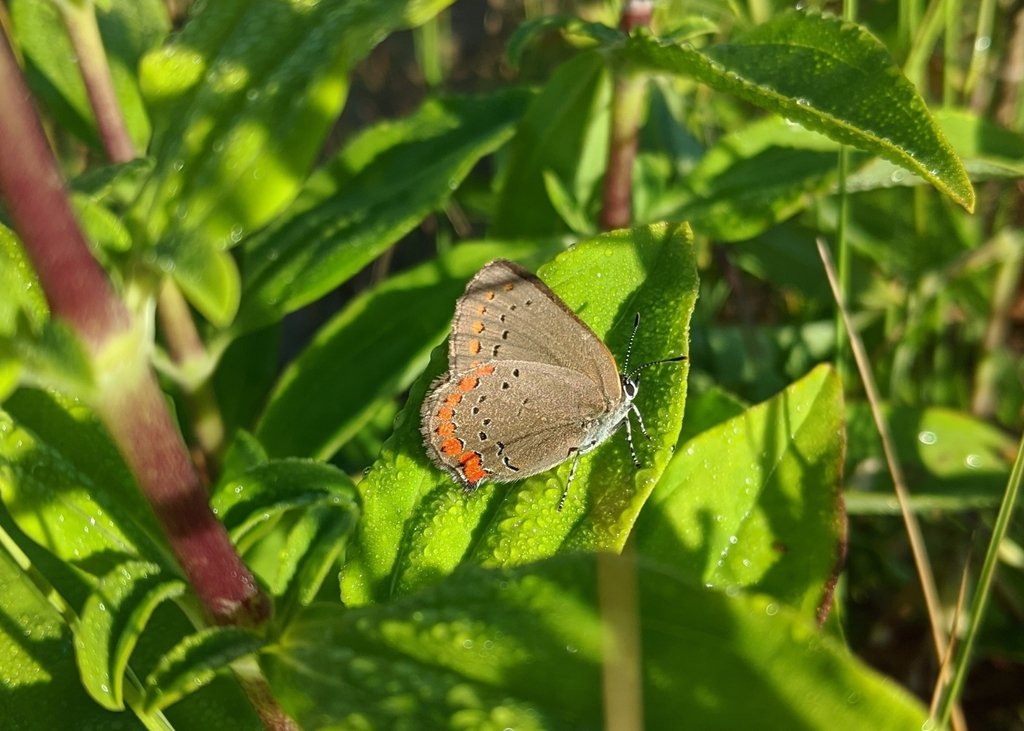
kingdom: Animalia
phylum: Arthropoda
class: Insecta
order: Lepidoptera
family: Lycaenidae
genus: Harkenclenus
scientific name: Harkenclenus titus
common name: Coral Hairstreak
